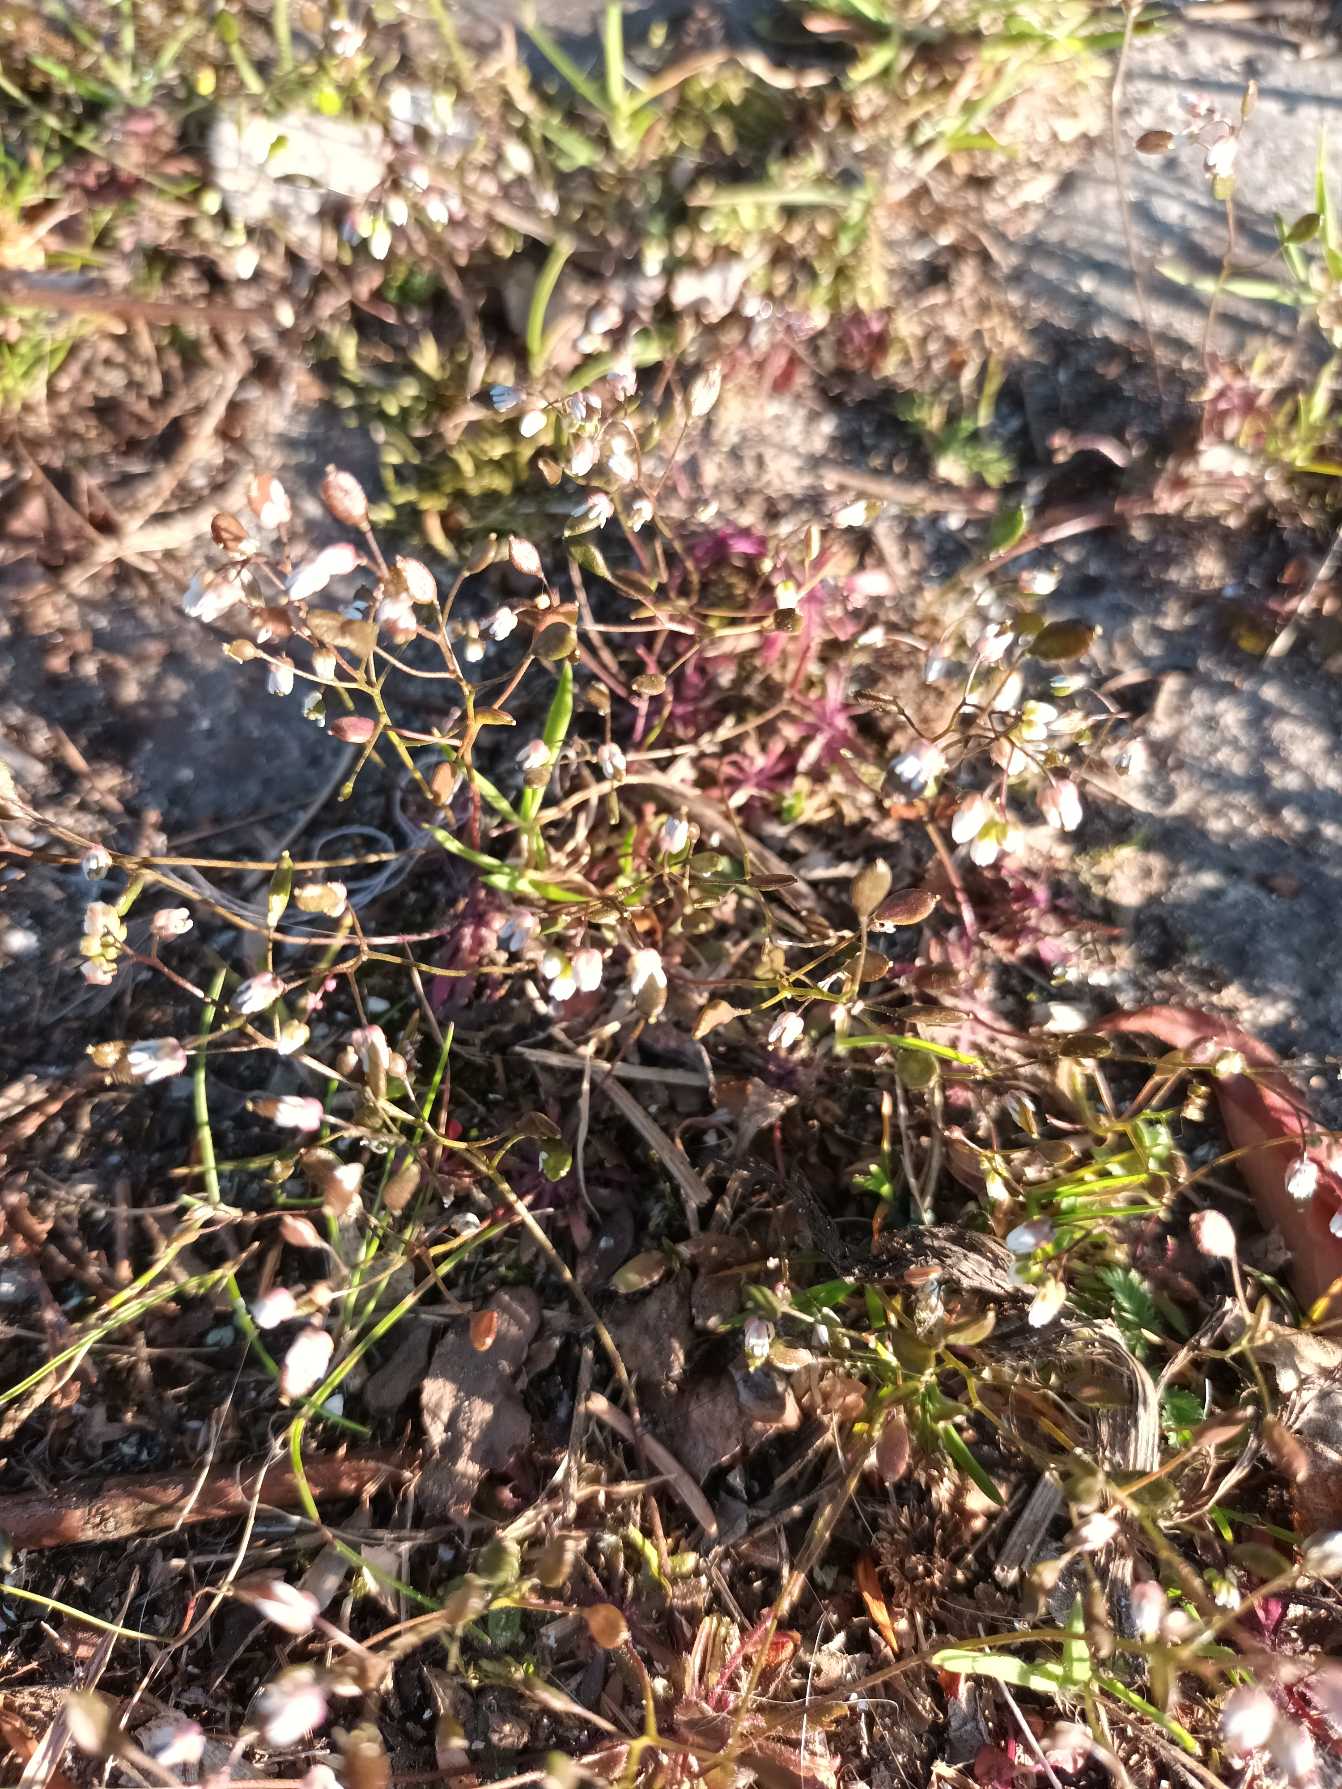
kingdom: Plantae
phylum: Tracheophyta
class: Magnoliopsida
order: Brassicales
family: Brassicaceae
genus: Draba
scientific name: Draba verna
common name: Vår-gæslingeblomst
